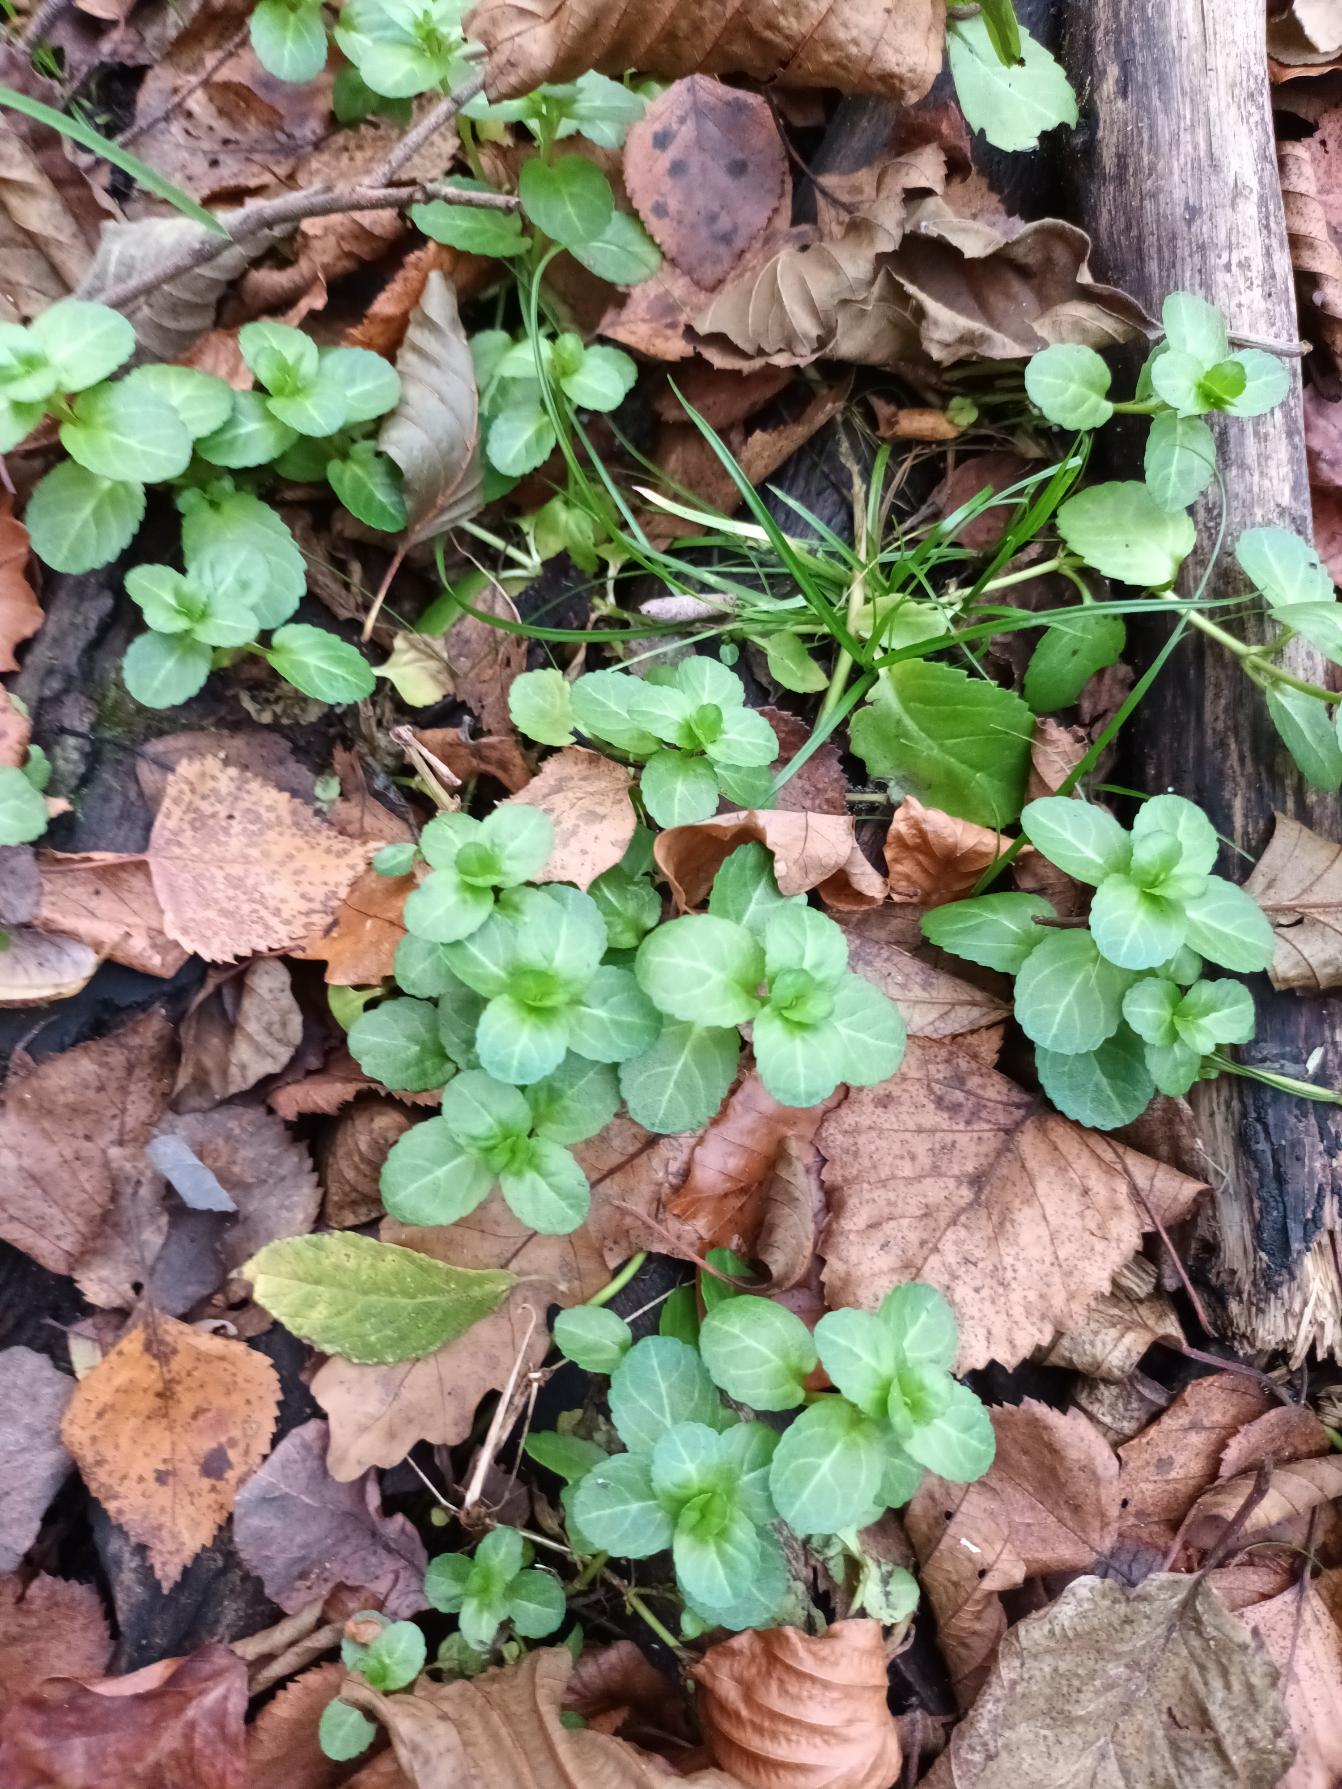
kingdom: Plantae
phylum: Tracheophyta
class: Magnoliopsida
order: Lamiales
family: Plantaginaceae
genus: Veronica
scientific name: Veronica beccabunga
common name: Tykbladet ærenpris
